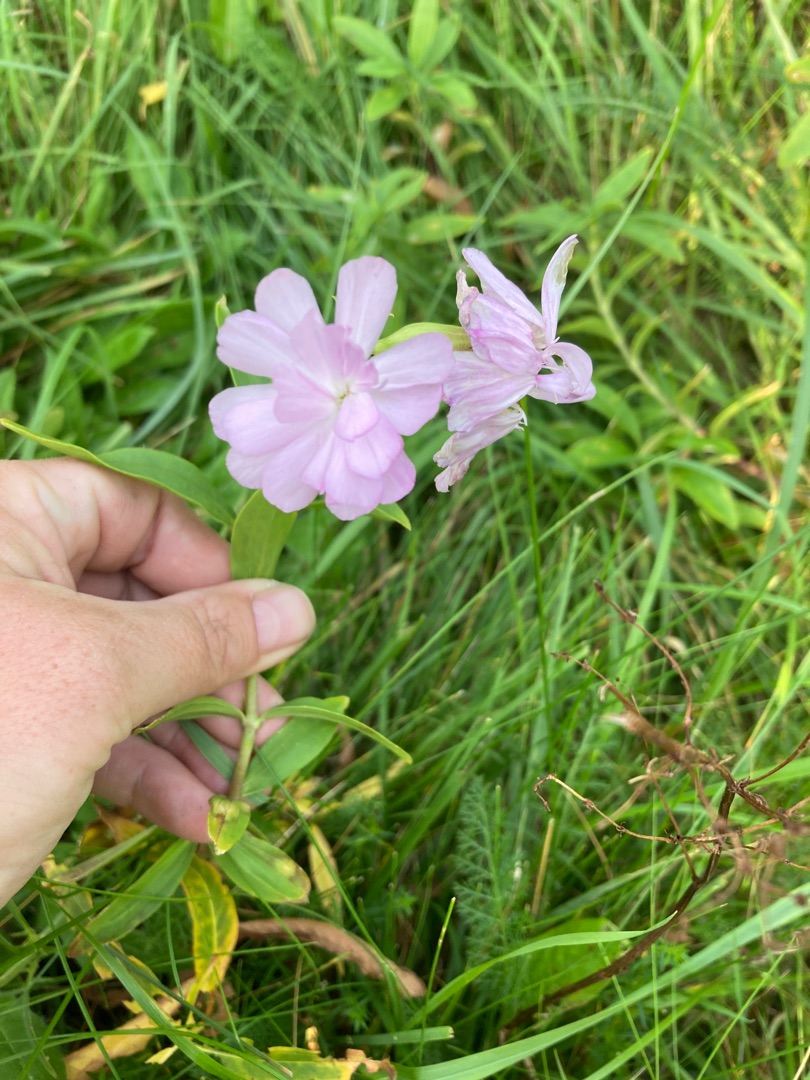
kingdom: Plantae
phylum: Tracheophyta
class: Magnoliopsida
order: Caryophyllales
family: Caryophyllaceae
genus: Saponaria
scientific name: Saponaria officinalis
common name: Sæbeurt
